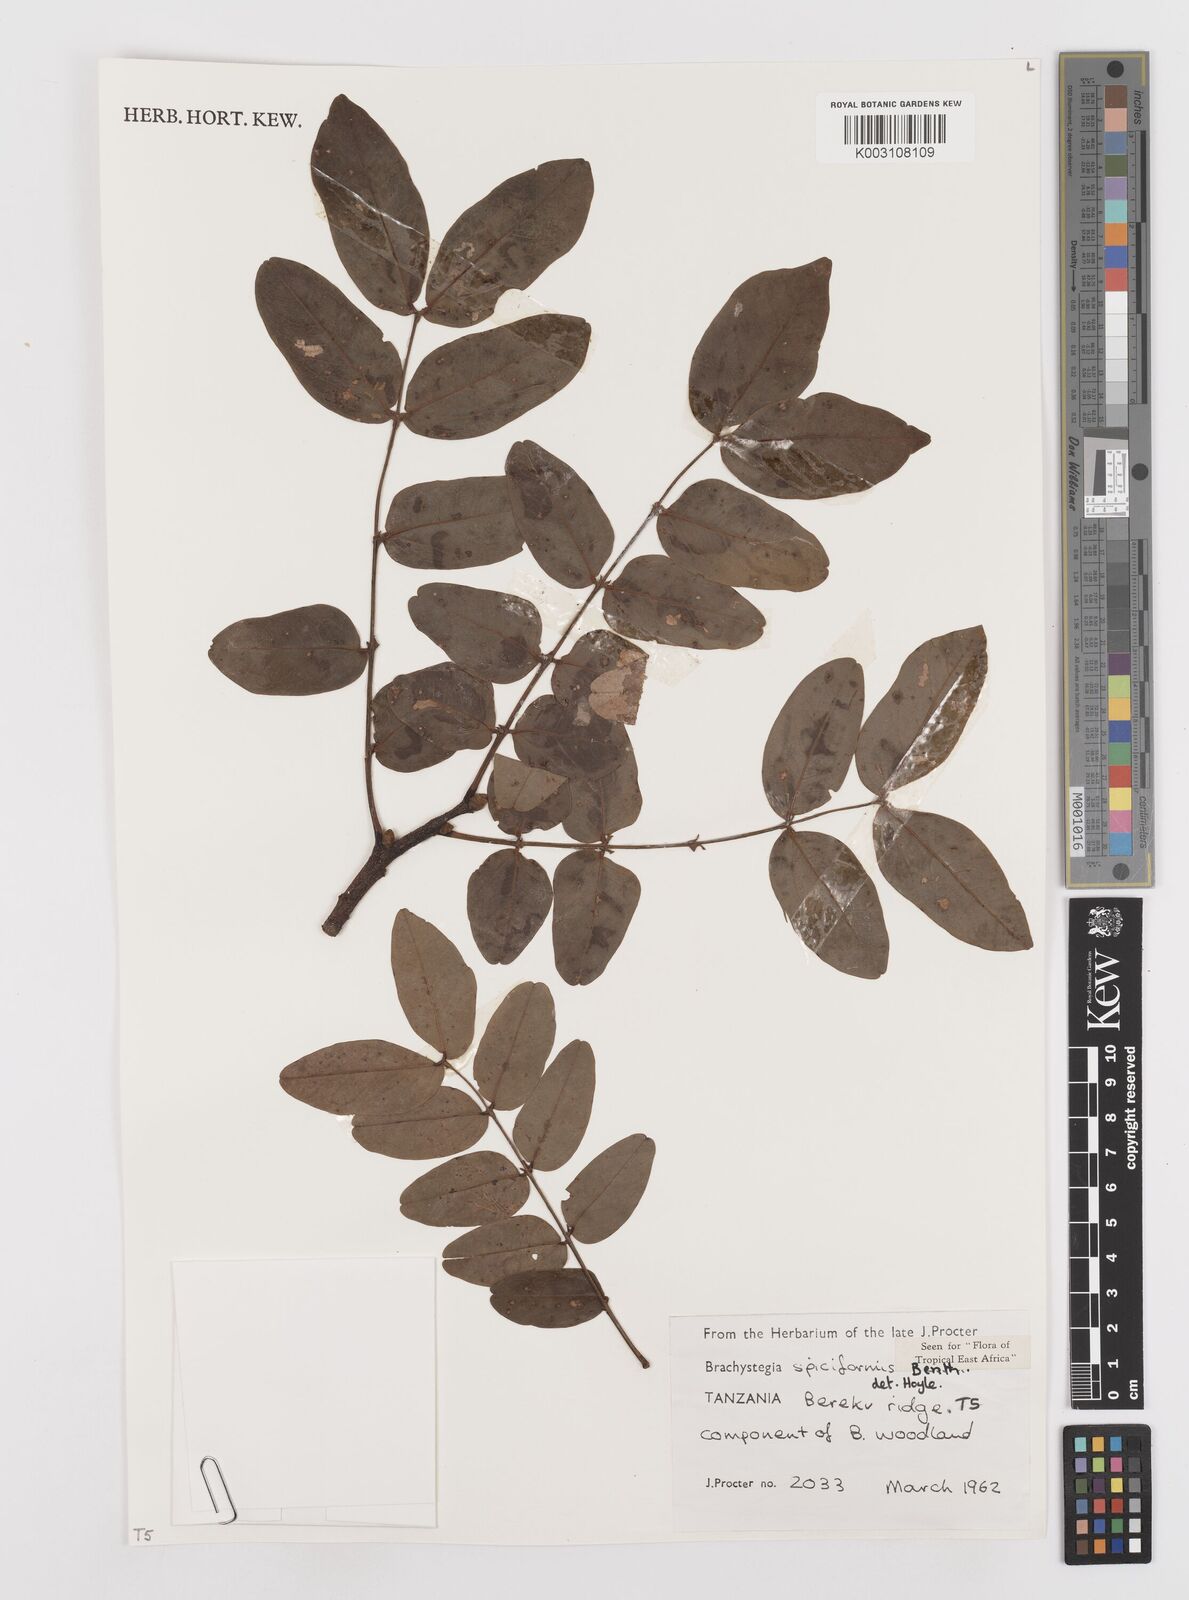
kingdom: Plantae
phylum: Tracheophyta
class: Magnoliopsida
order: Fabales
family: Fabaceae
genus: Brachystegia
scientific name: Brachystegia spiciformis
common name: Zebrawood
